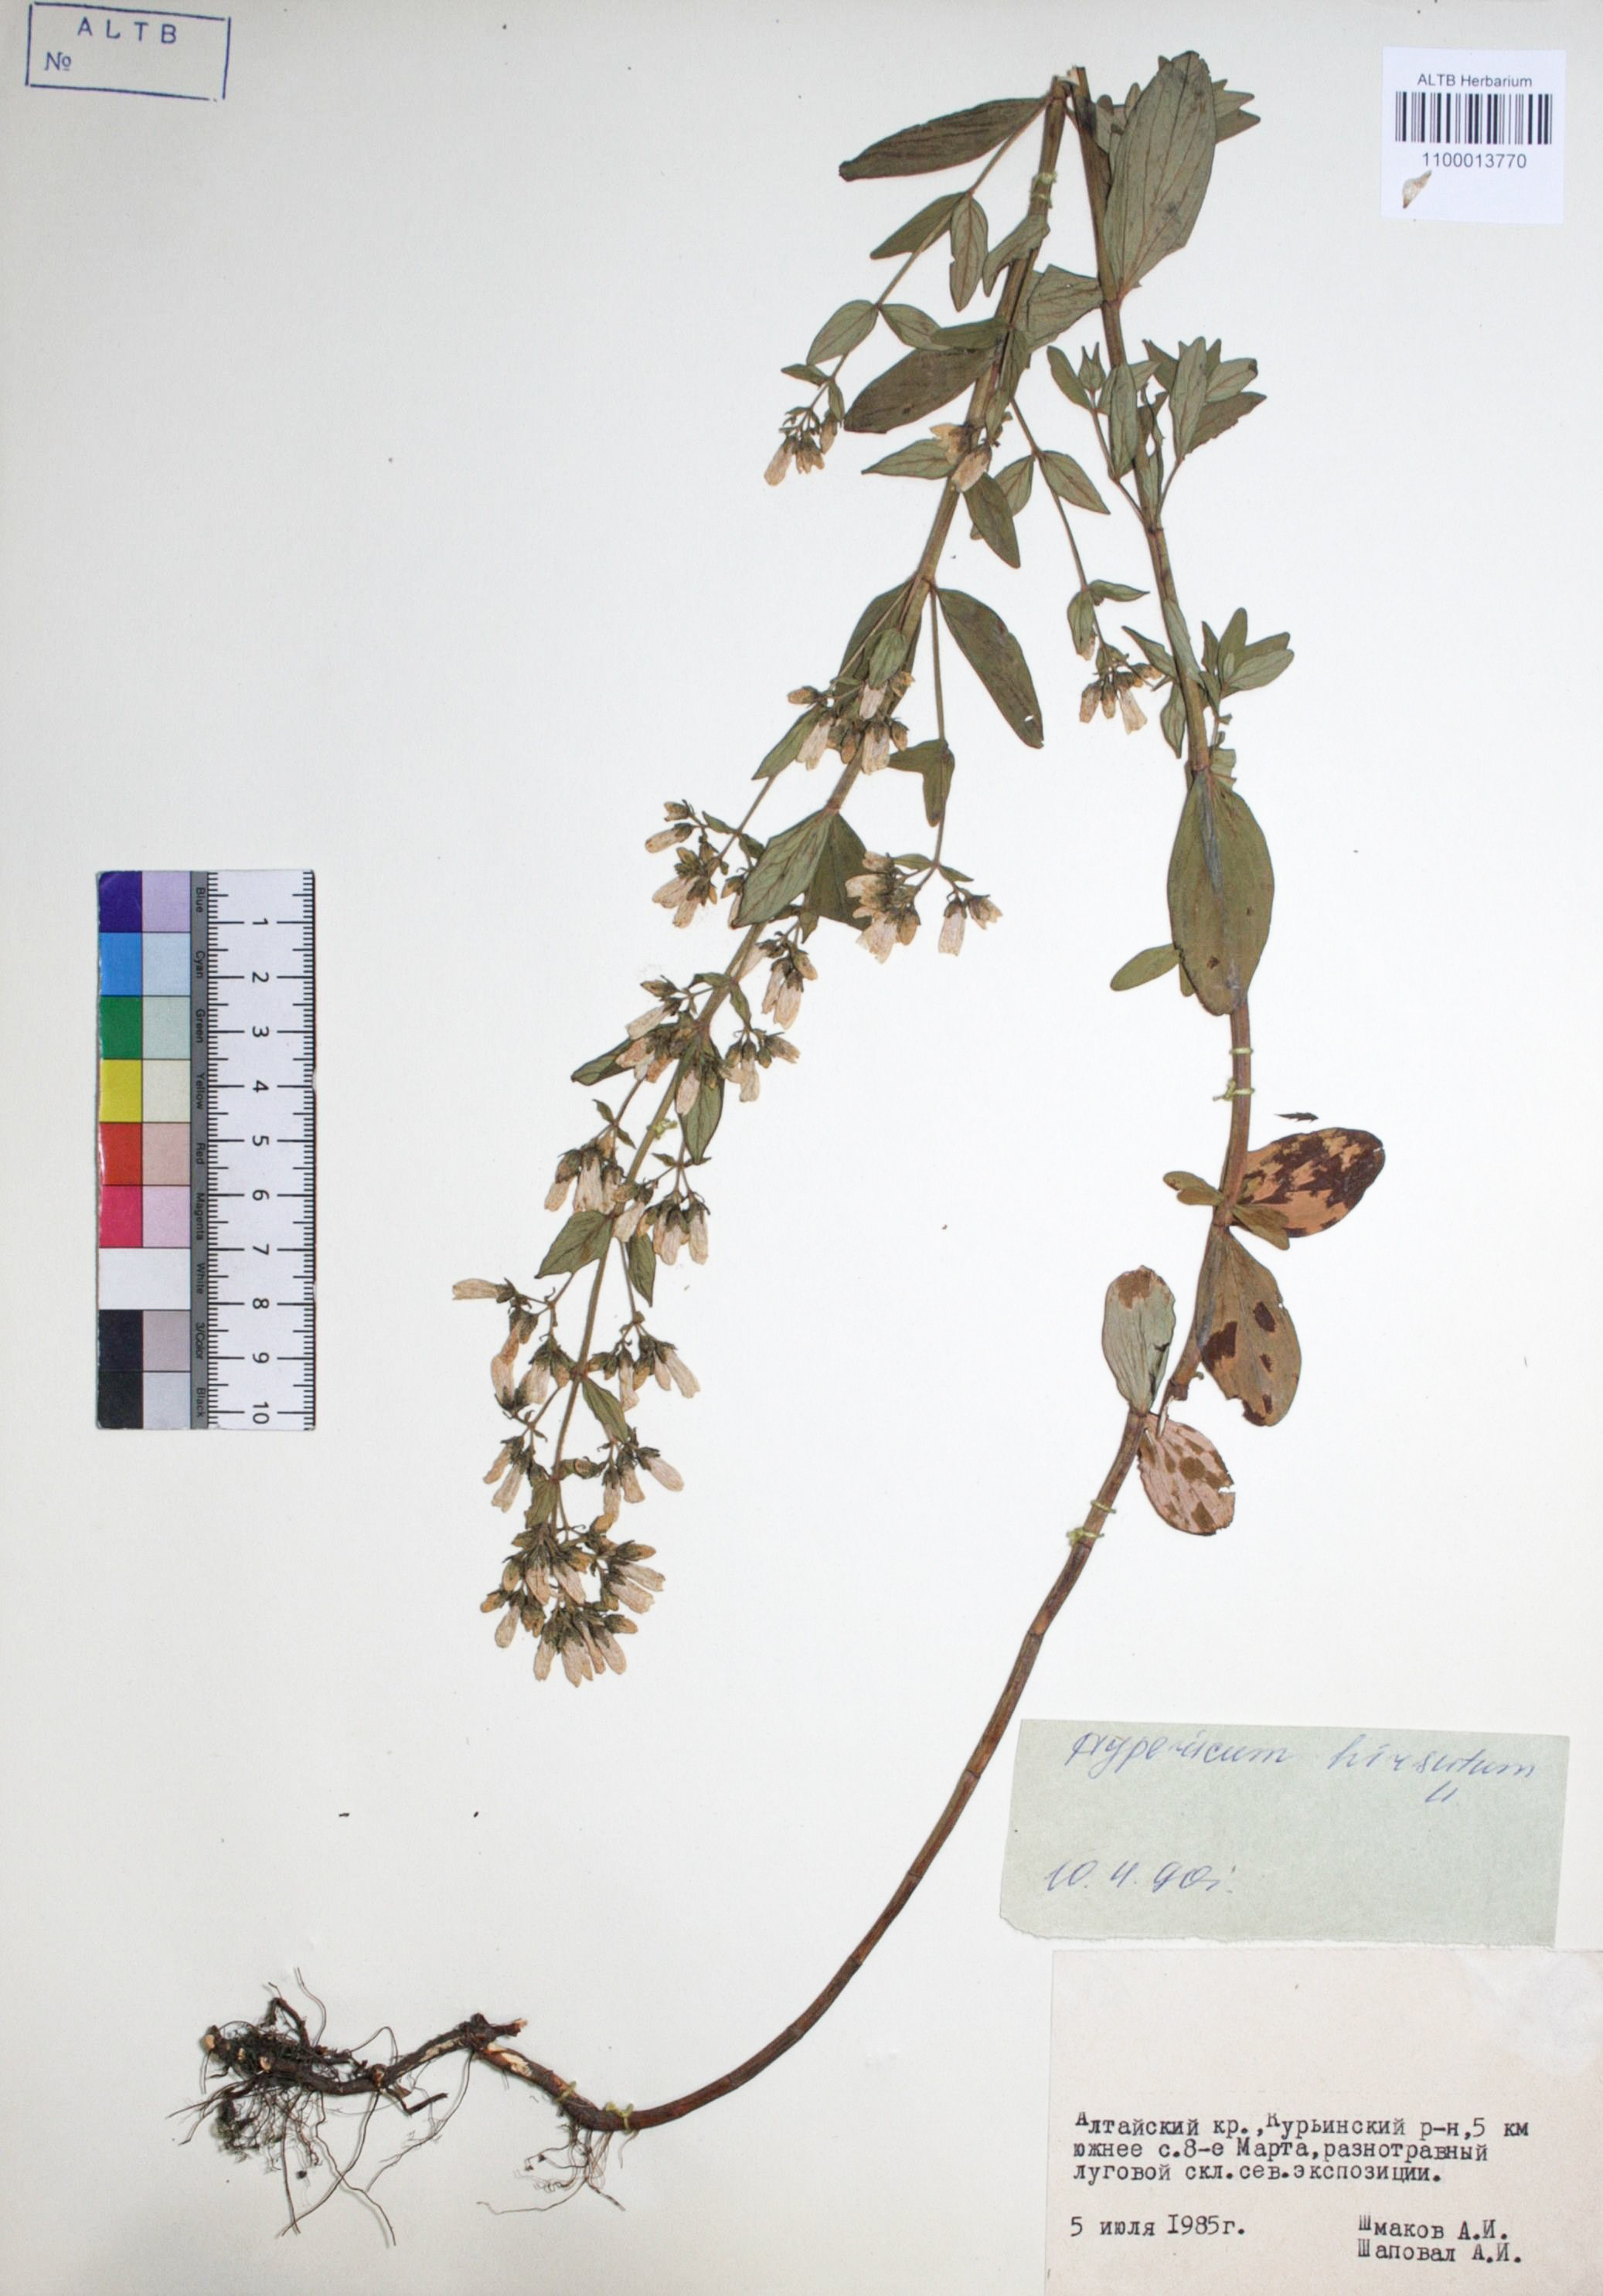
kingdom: Plantae
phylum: Tracheophyta
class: Magnoliopsida
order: Malpighiales
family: Hypericaceae
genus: Hypericum
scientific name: Hypericum hirsutum
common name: Hairy st. john's-wort
